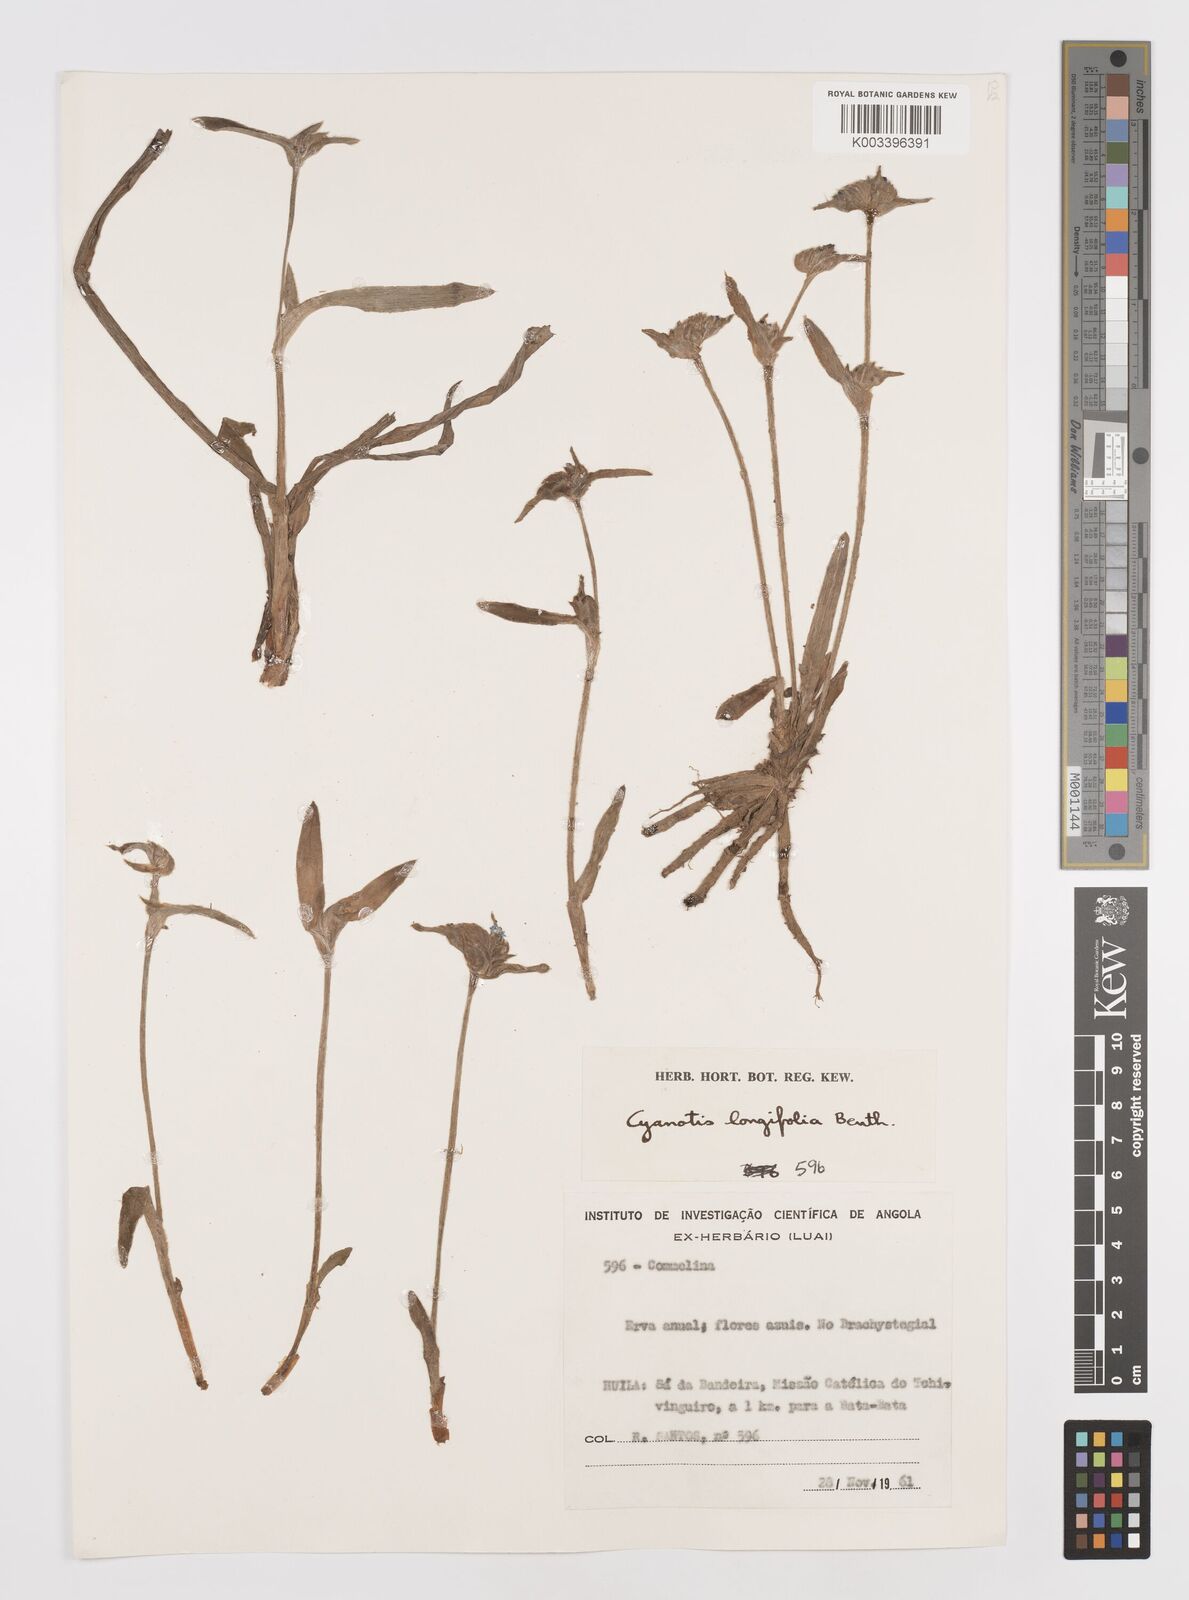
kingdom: Plantae
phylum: Tracheophyta
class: Liliopsida
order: Commelinales
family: Commelinaceae
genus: Cyanotis
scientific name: Cyanotis longifolia
